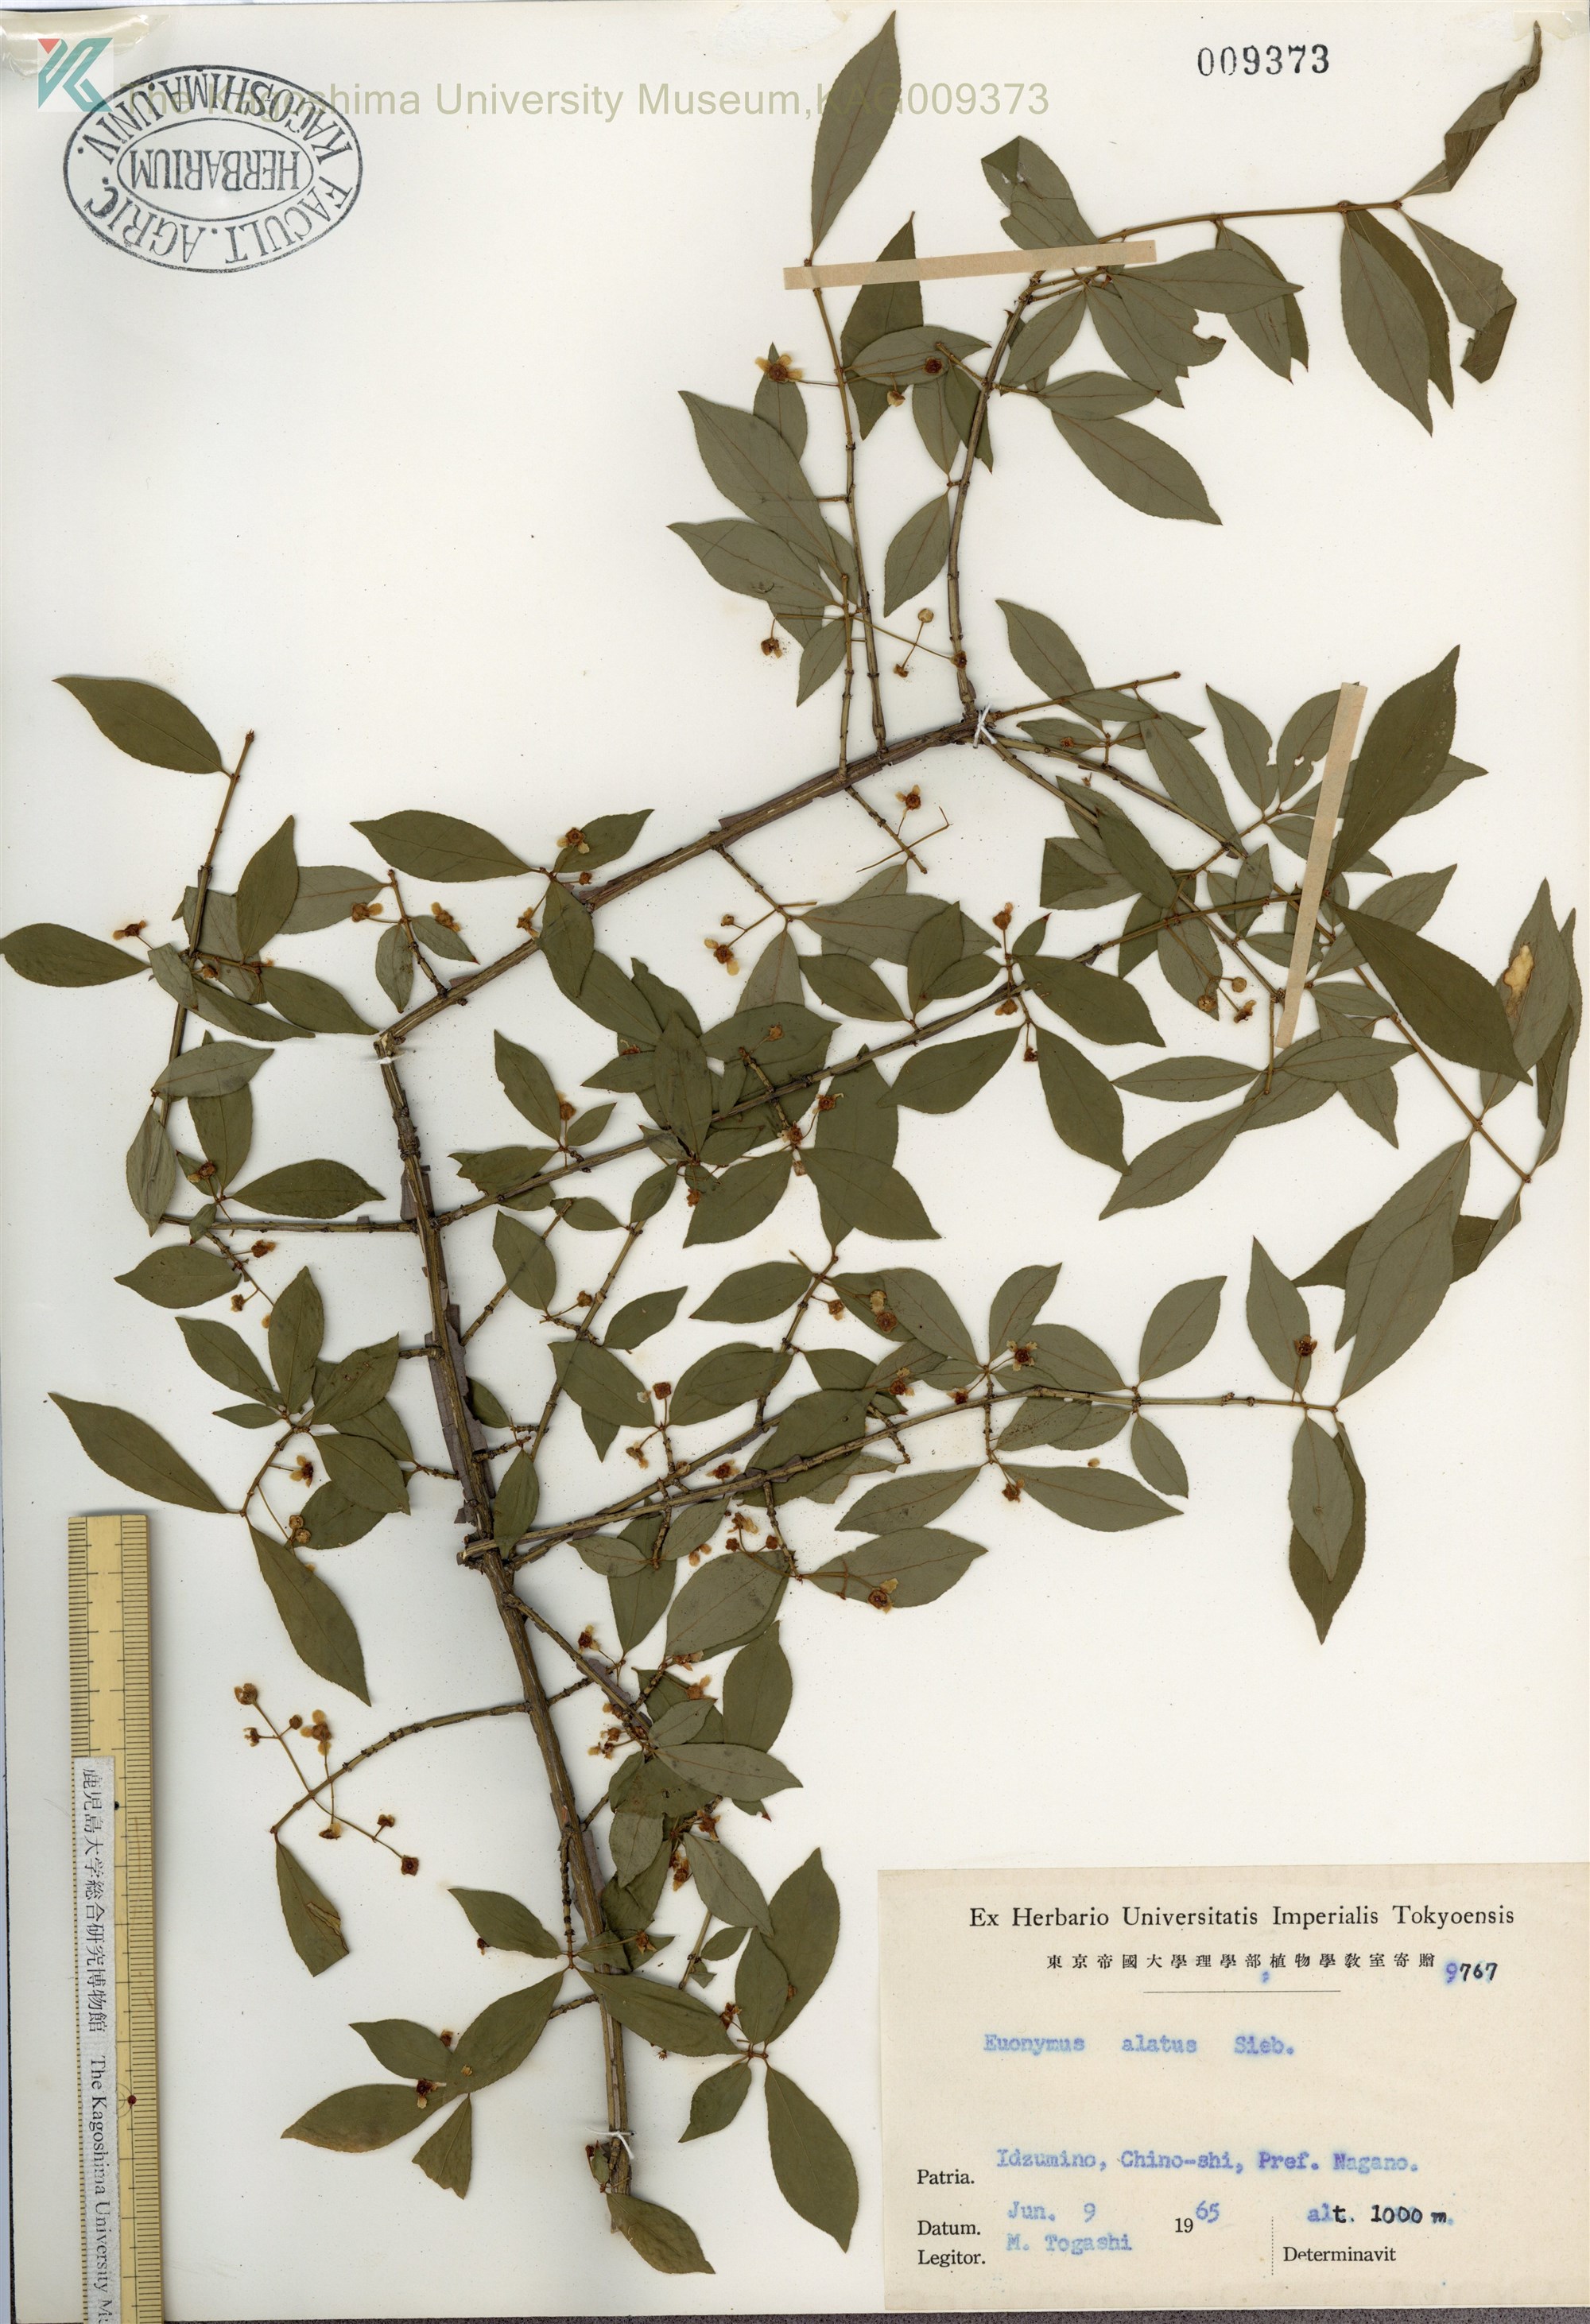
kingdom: Plantae
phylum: Tracheophyta
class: Magnoliopsida
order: Celastrales
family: Celastraceae
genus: Euonymus
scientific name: Euonymus alatus
